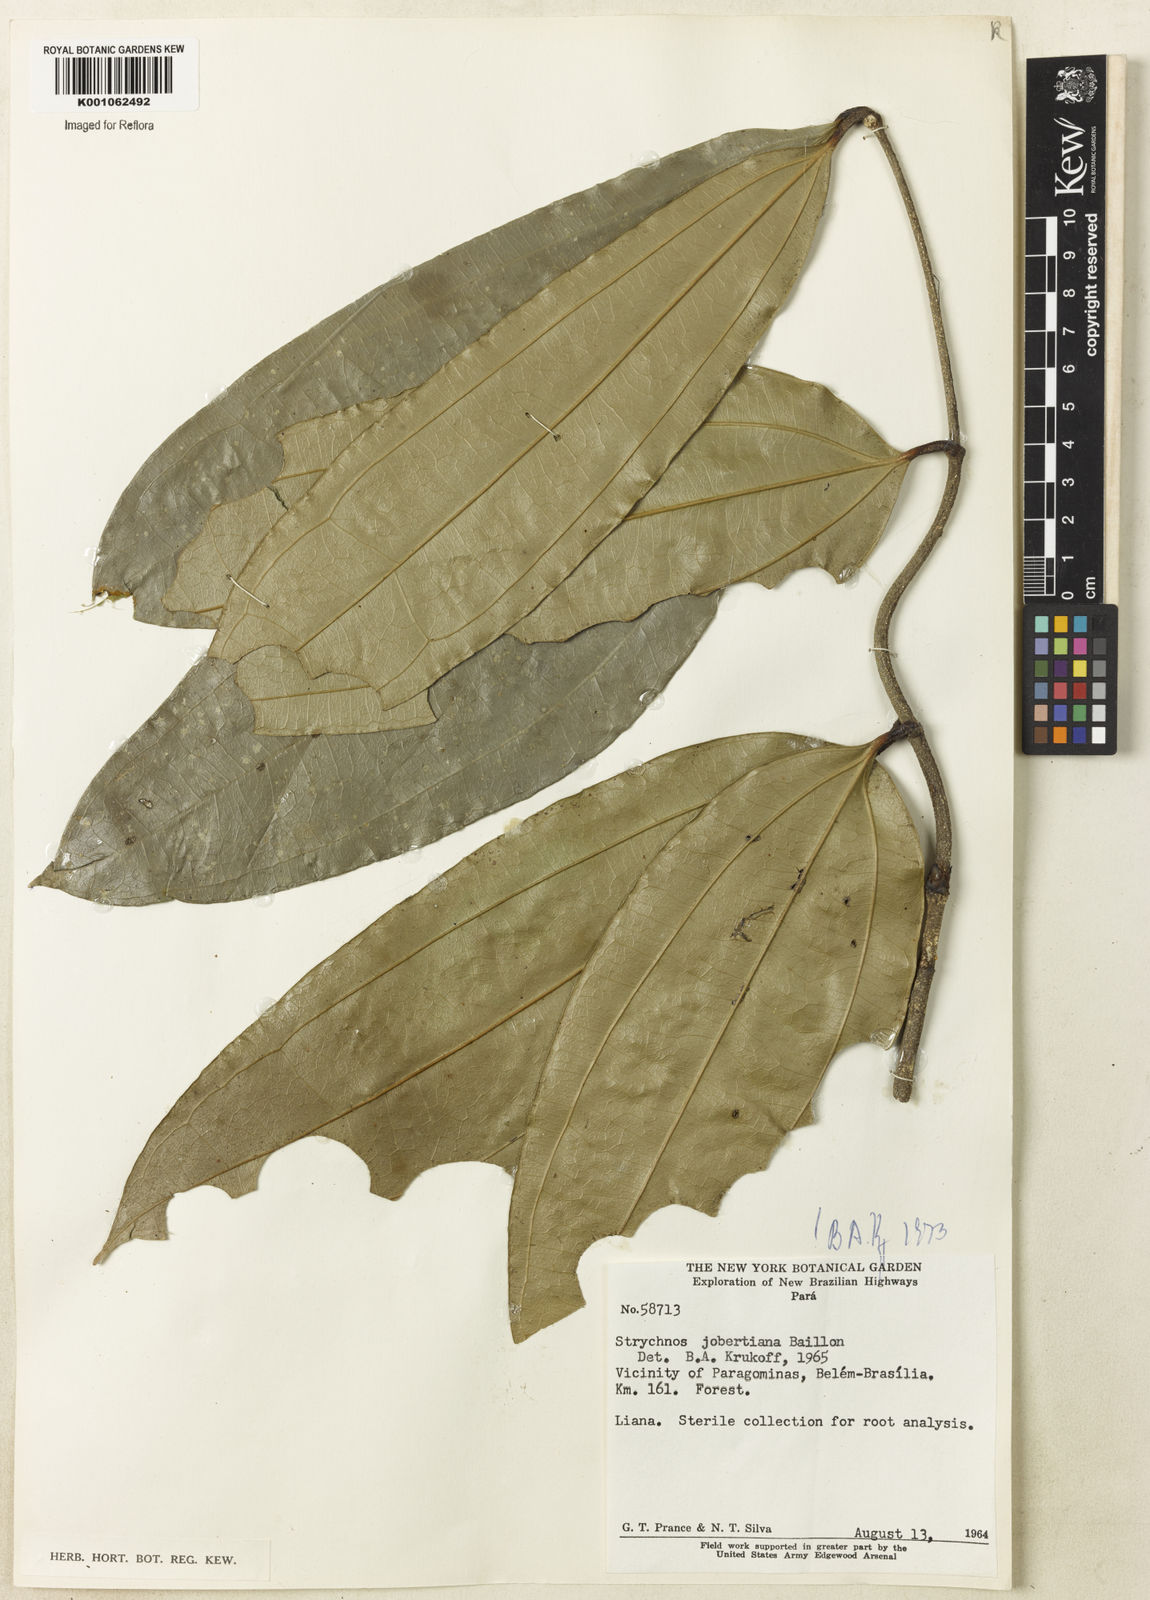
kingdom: Plantae
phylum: Tracheophyta
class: Magnoliopsida
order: Gentianales
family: Loganiaceae
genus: Strychnos
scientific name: Strychnos jobertiana
